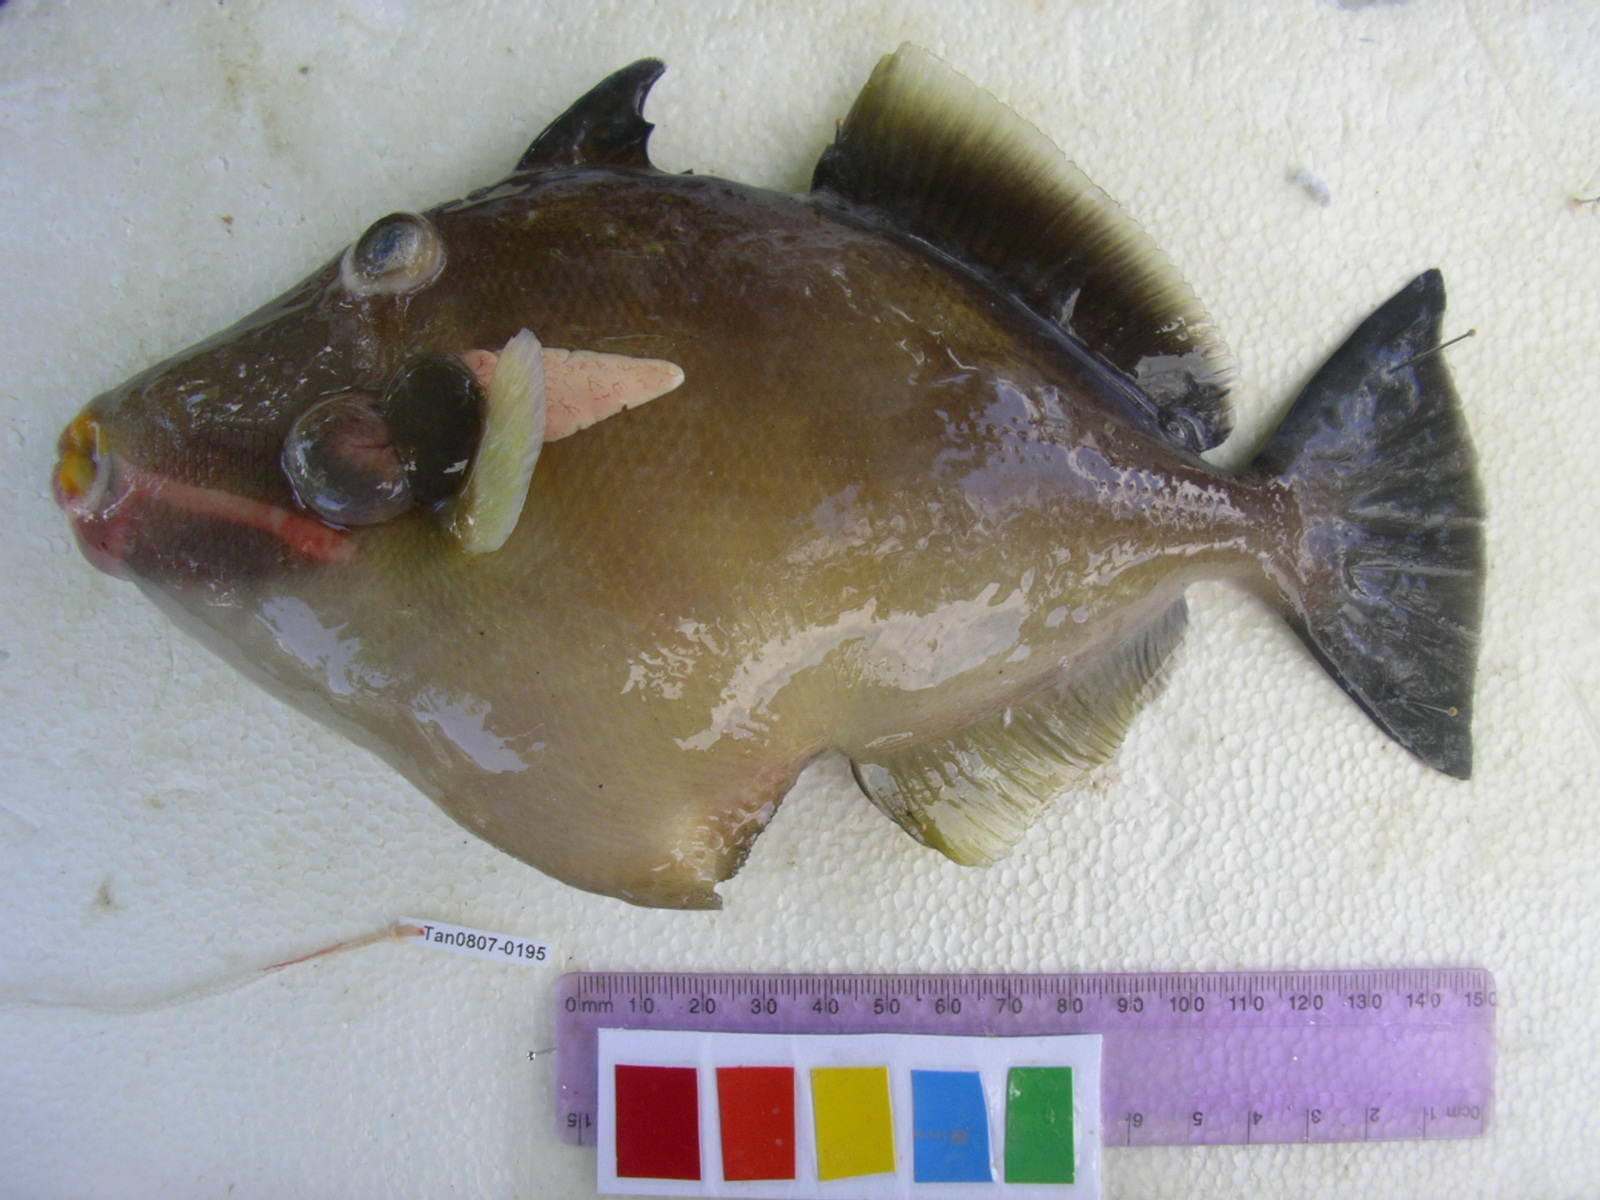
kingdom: Animalia
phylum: Chordata
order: Tetraodontiformes
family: Balistidae
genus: Sufflamen
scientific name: Sufflamen fraenatum
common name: Bridle triggerfish
